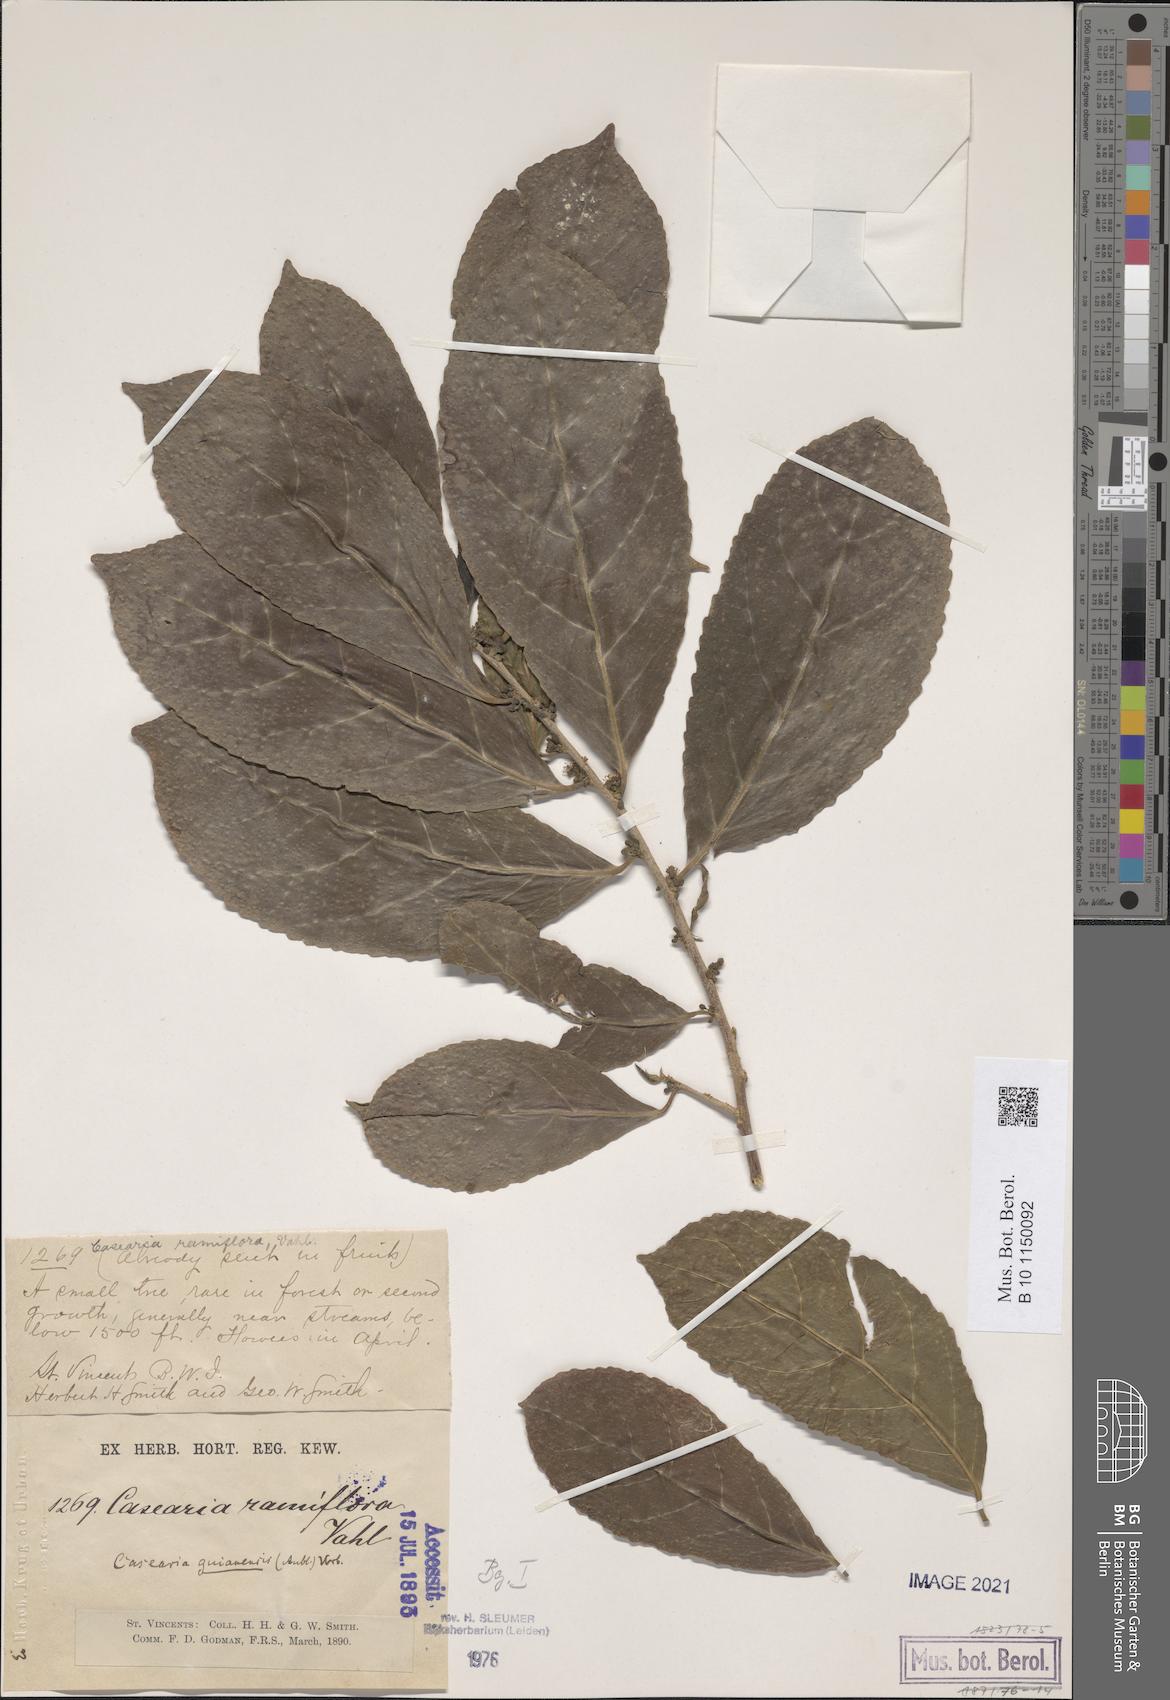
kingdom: Plantae
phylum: Tracheophyta
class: Magnoliopsida
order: Malpighiales
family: Salicaceae
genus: Casearia
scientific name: Casearia guianensis
